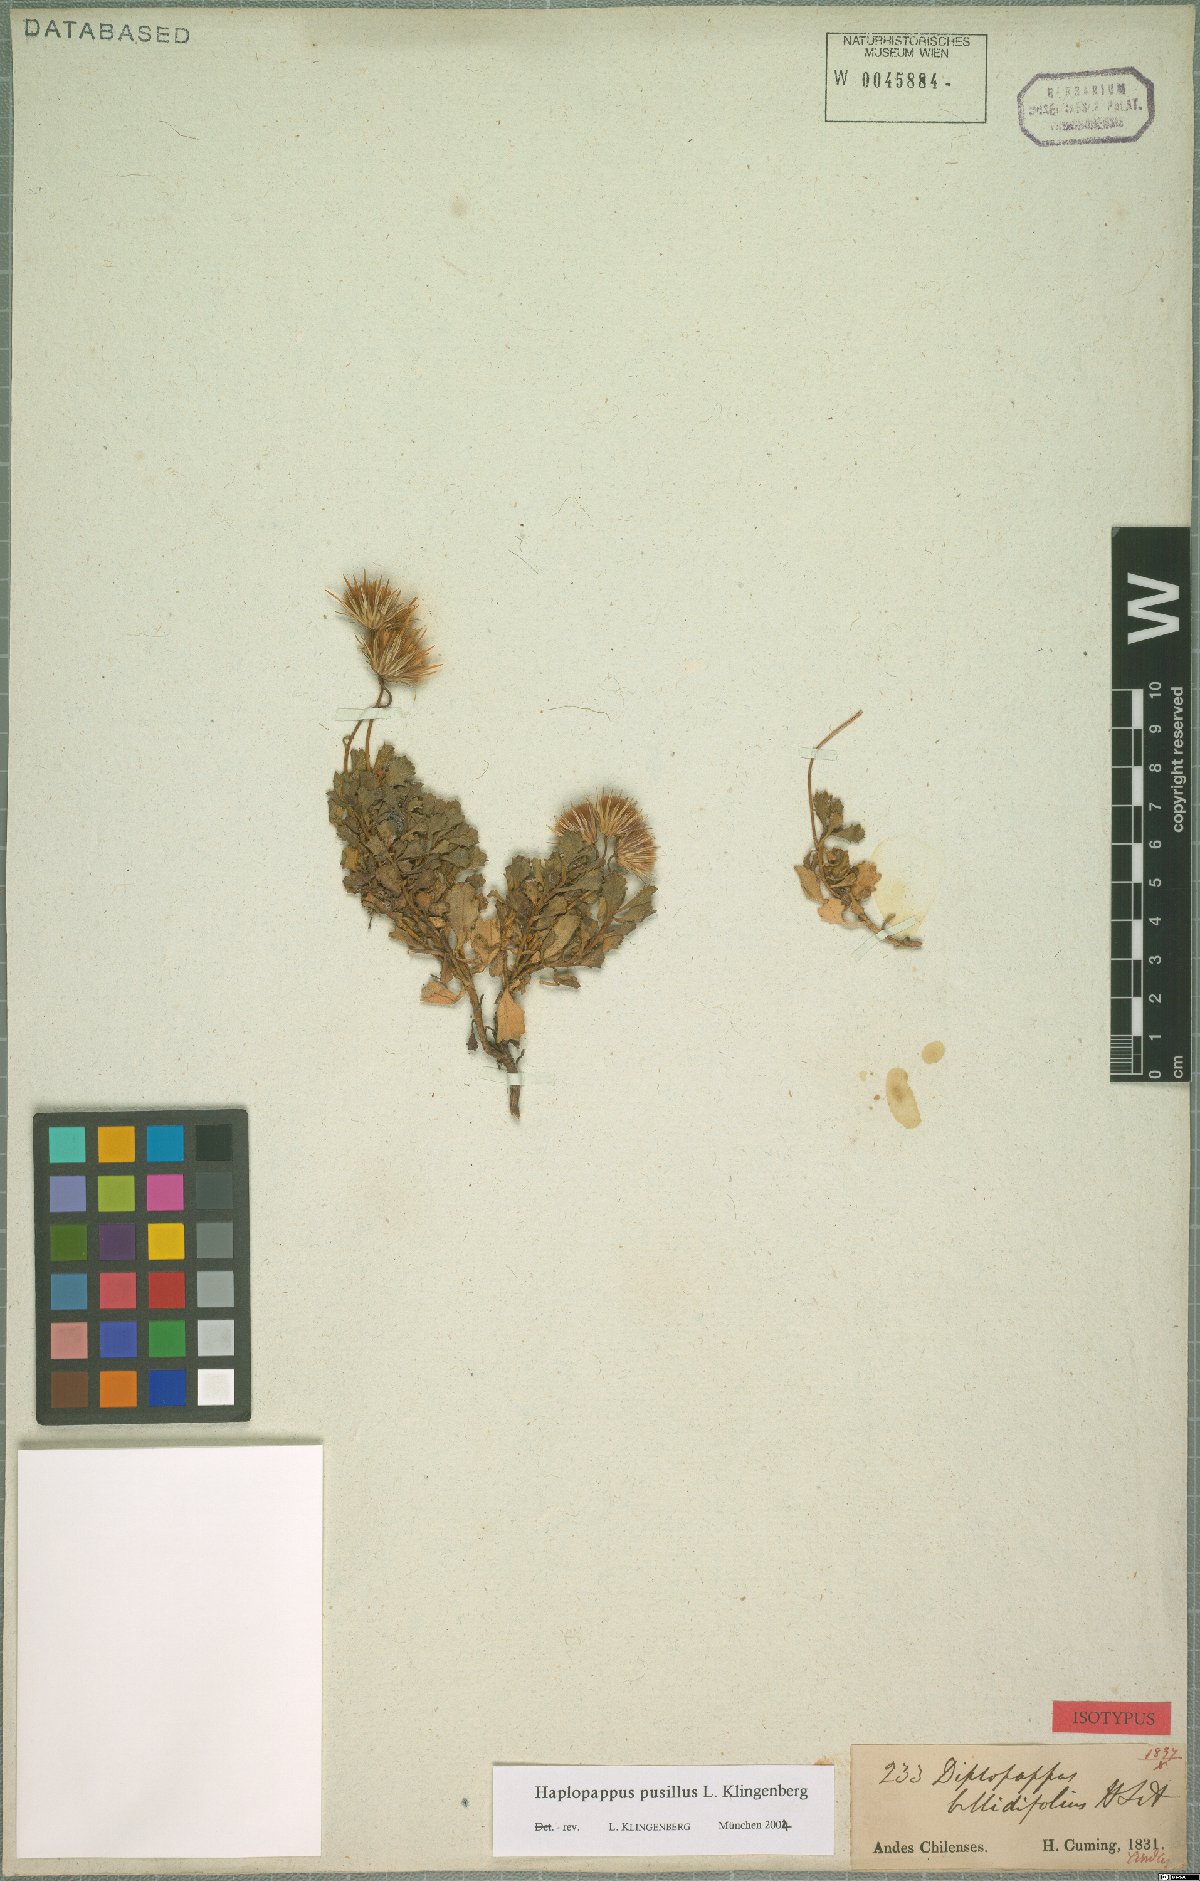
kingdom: Plantae
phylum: Tracheophyta
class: Magnoliopsida
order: Asterales
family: Asteraceae
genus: Haplopappus
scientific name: Haplopappus pusillus
